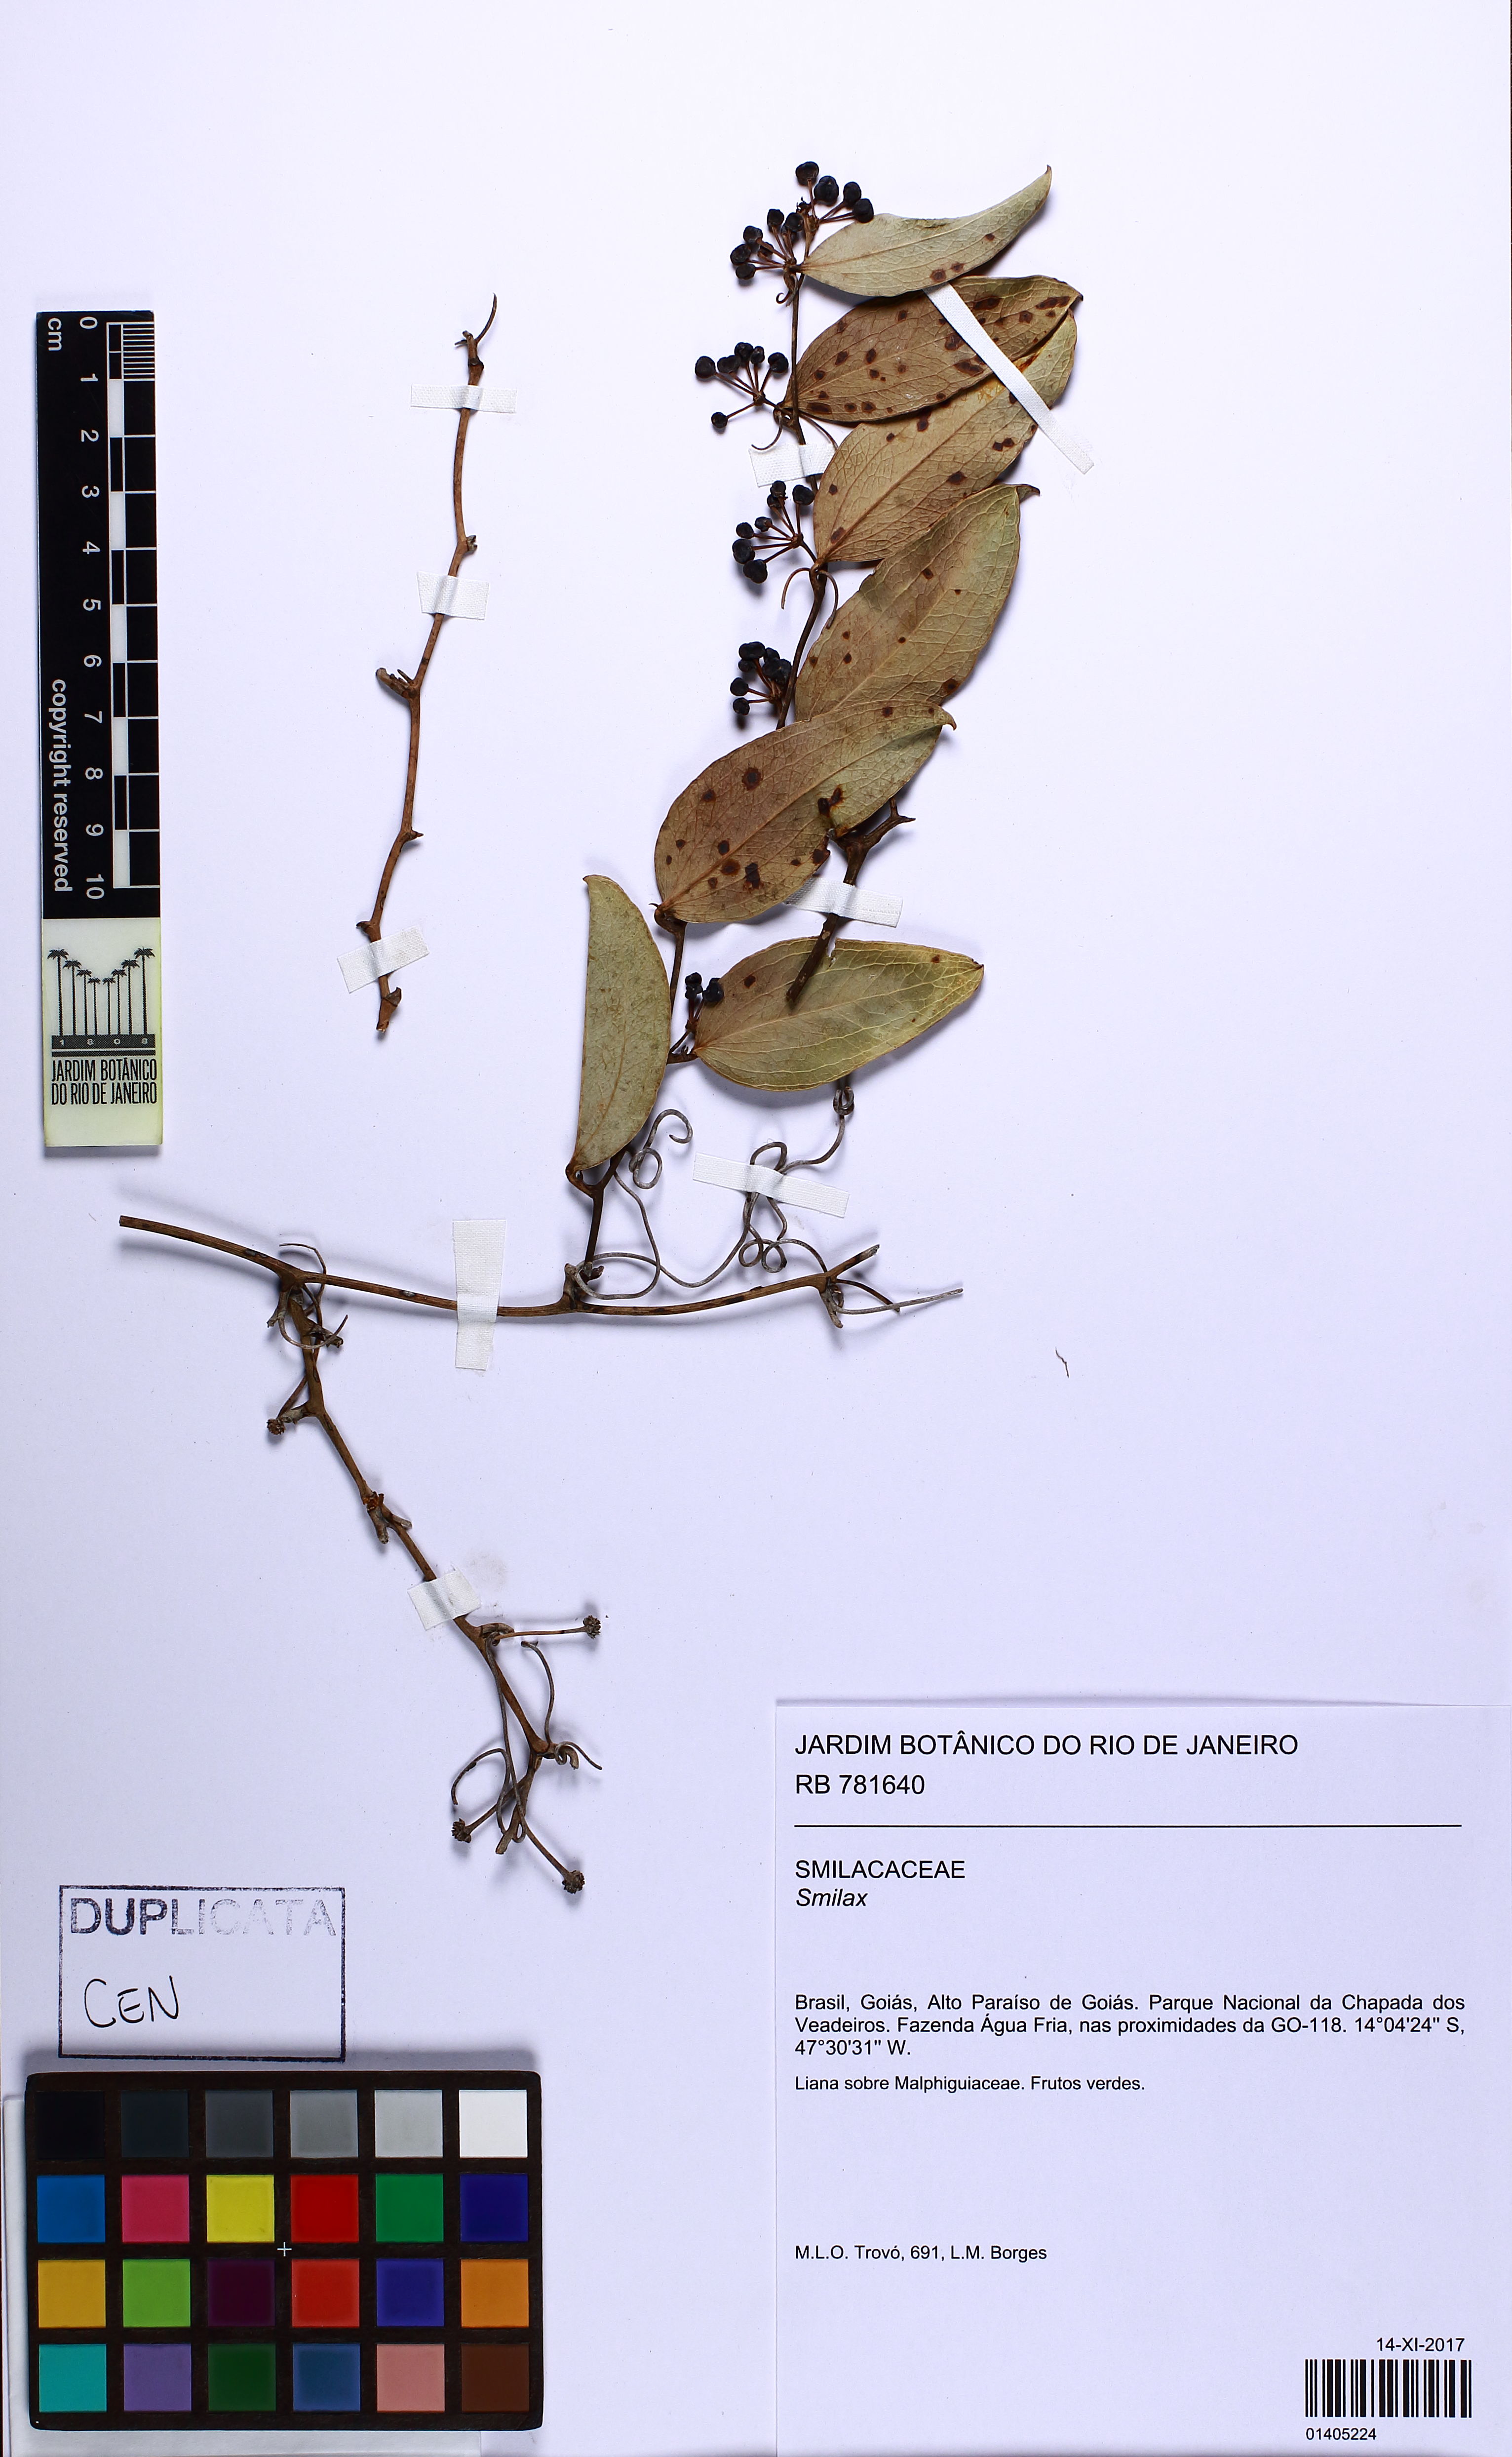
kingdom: Plantae
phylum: Tracheophyta
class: Liliopsida
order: Liliales
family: Smilacaceae
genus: Smilax
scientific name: Smilax
